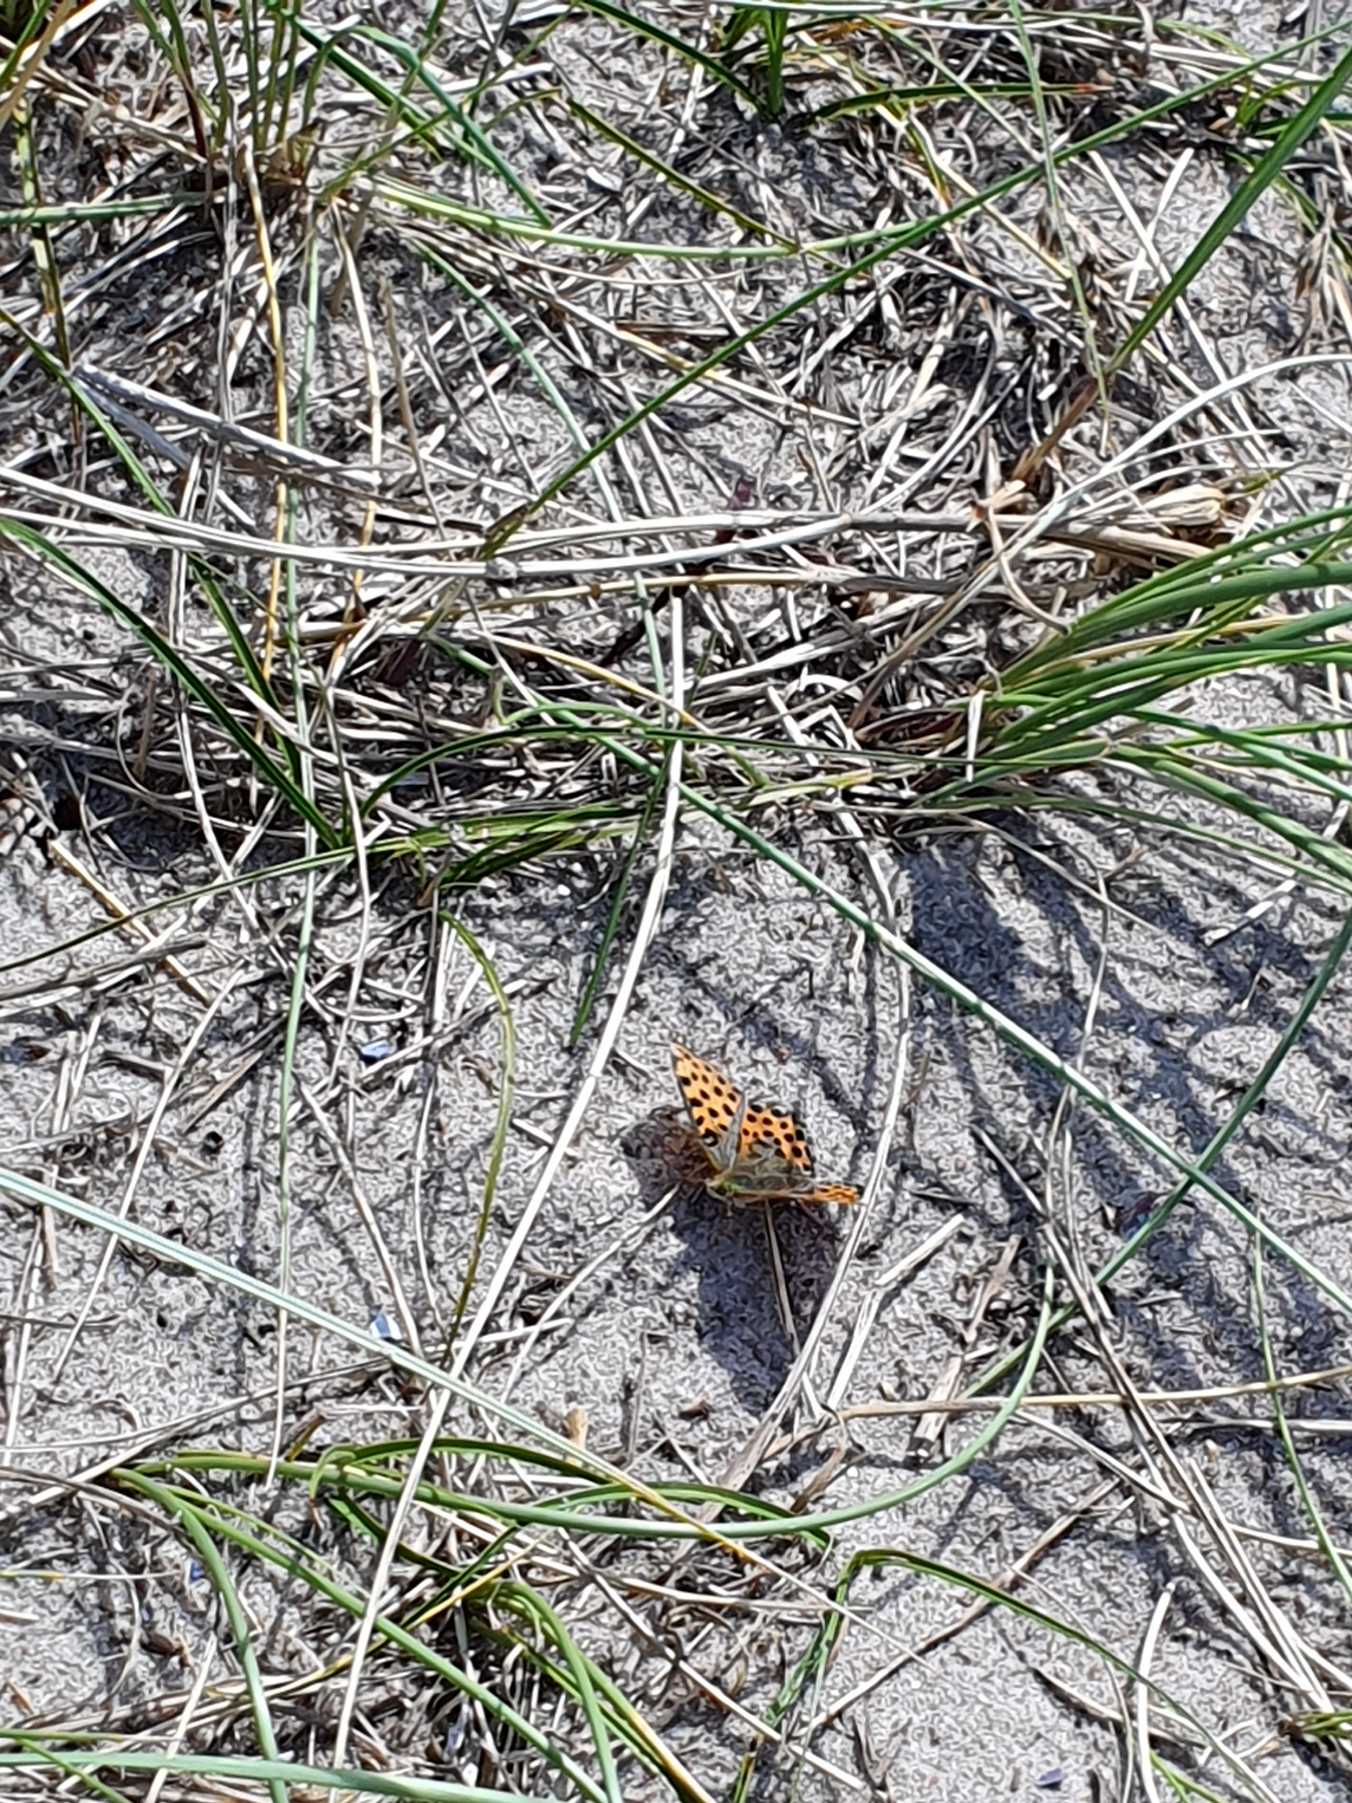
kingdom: Animalia
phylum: Arthropoda
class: Insecta
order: Lepidoptera
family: Nymphalidae
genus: Issoria
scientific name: Issoria lathonia
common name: Storplettet perlemorsommerfugl
